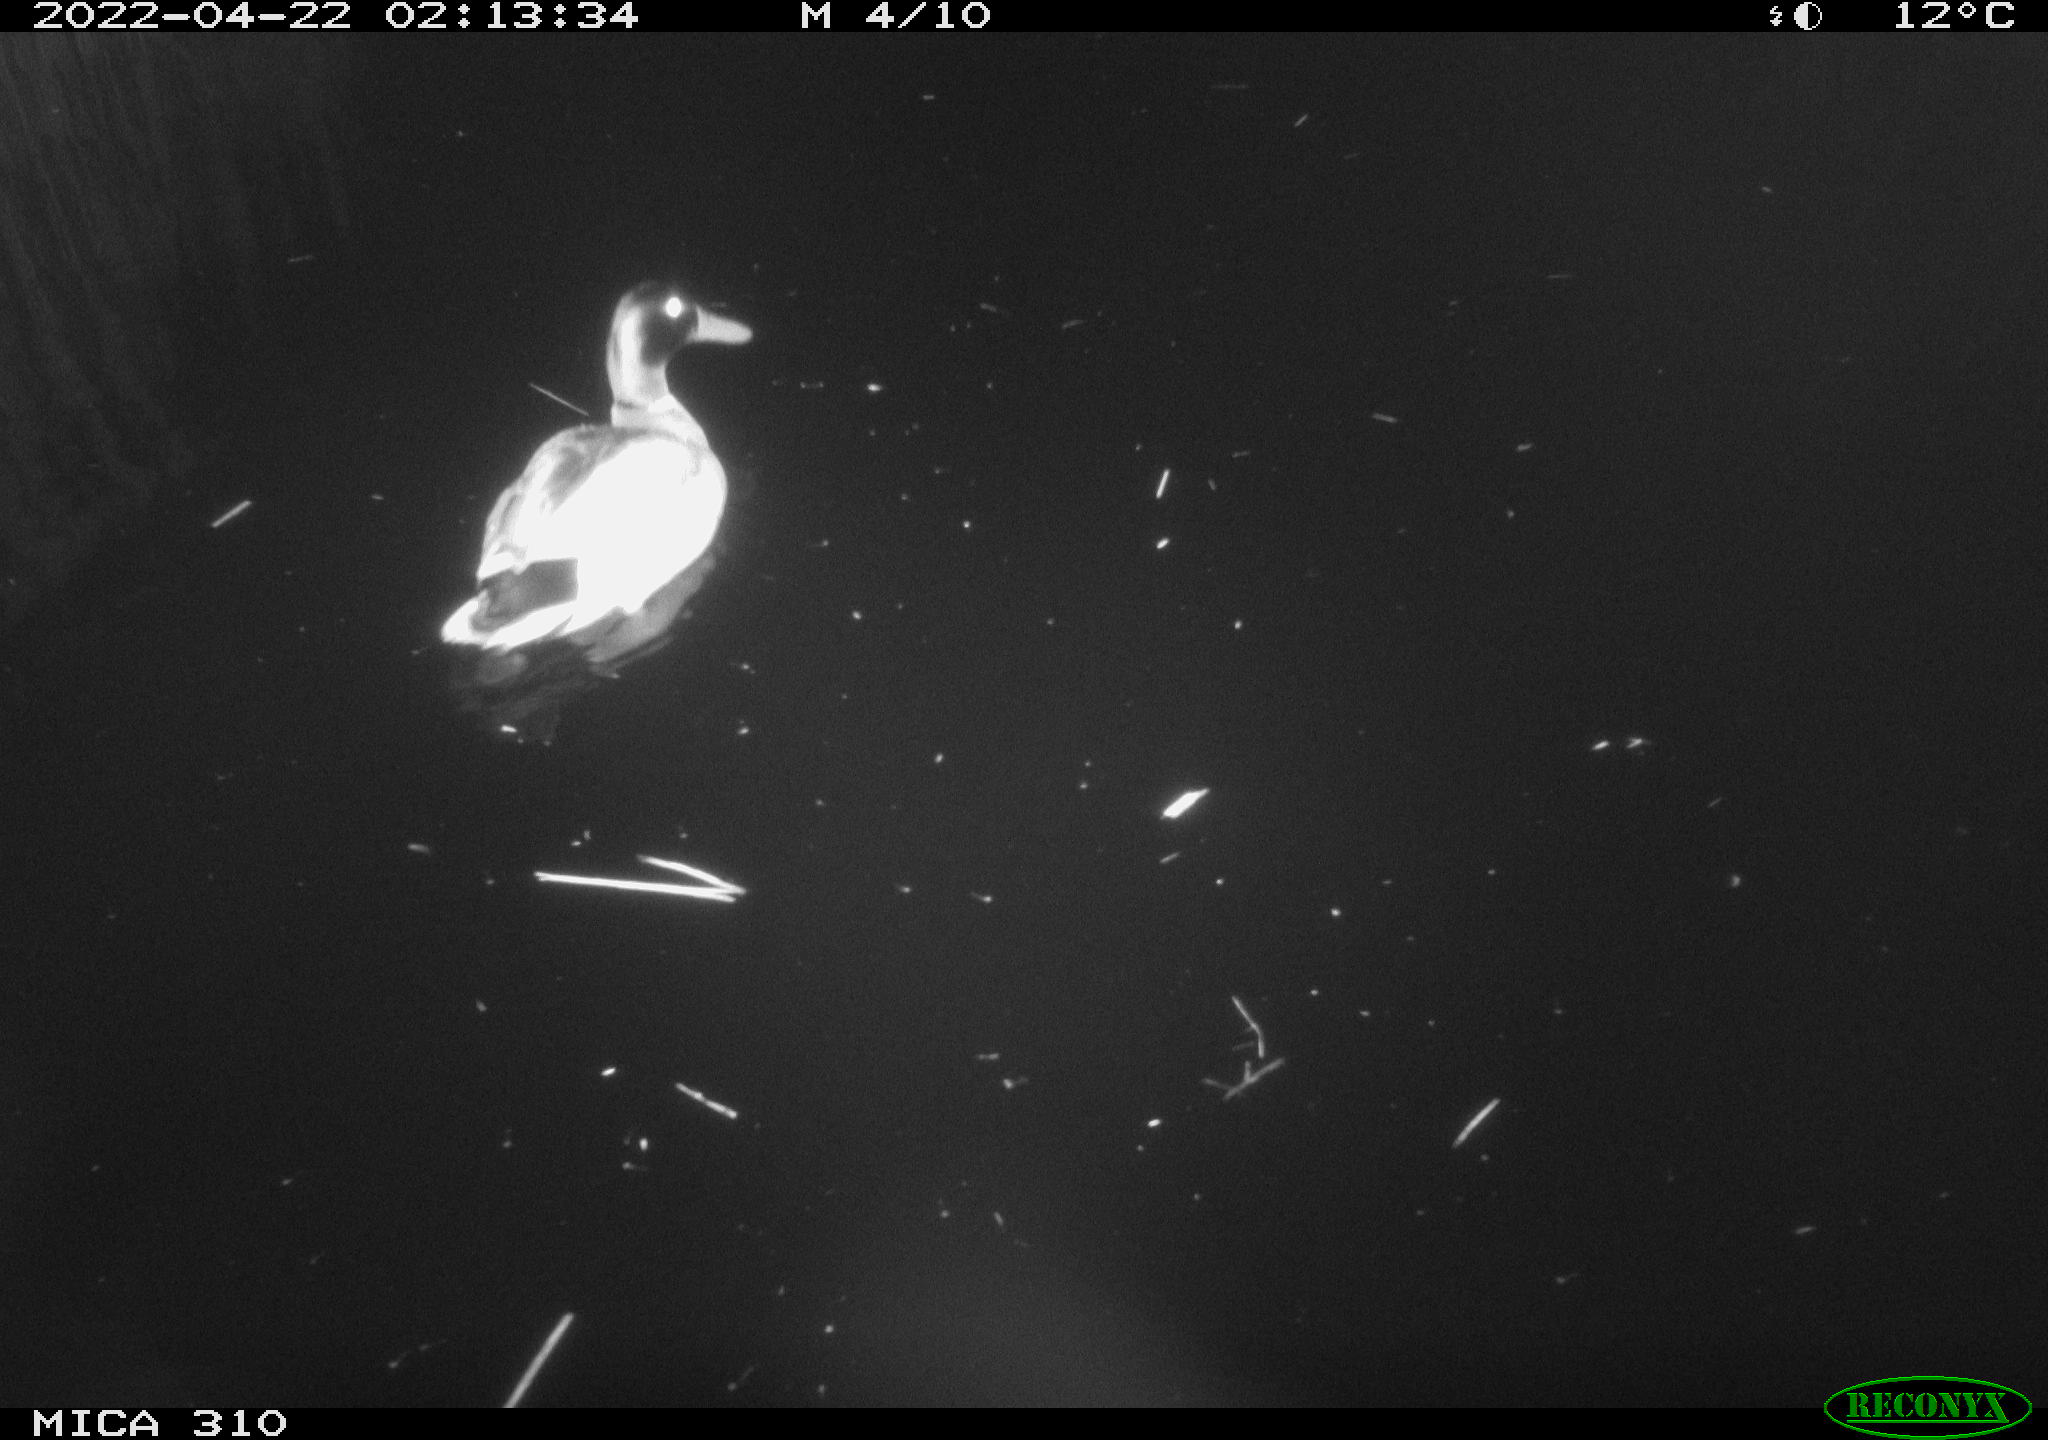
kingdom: Animalia
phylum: Chordata
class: Aves
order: Anseriformes
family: Anatidae
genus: Anas
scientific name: Anas platyrhynchos
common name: Mallard
